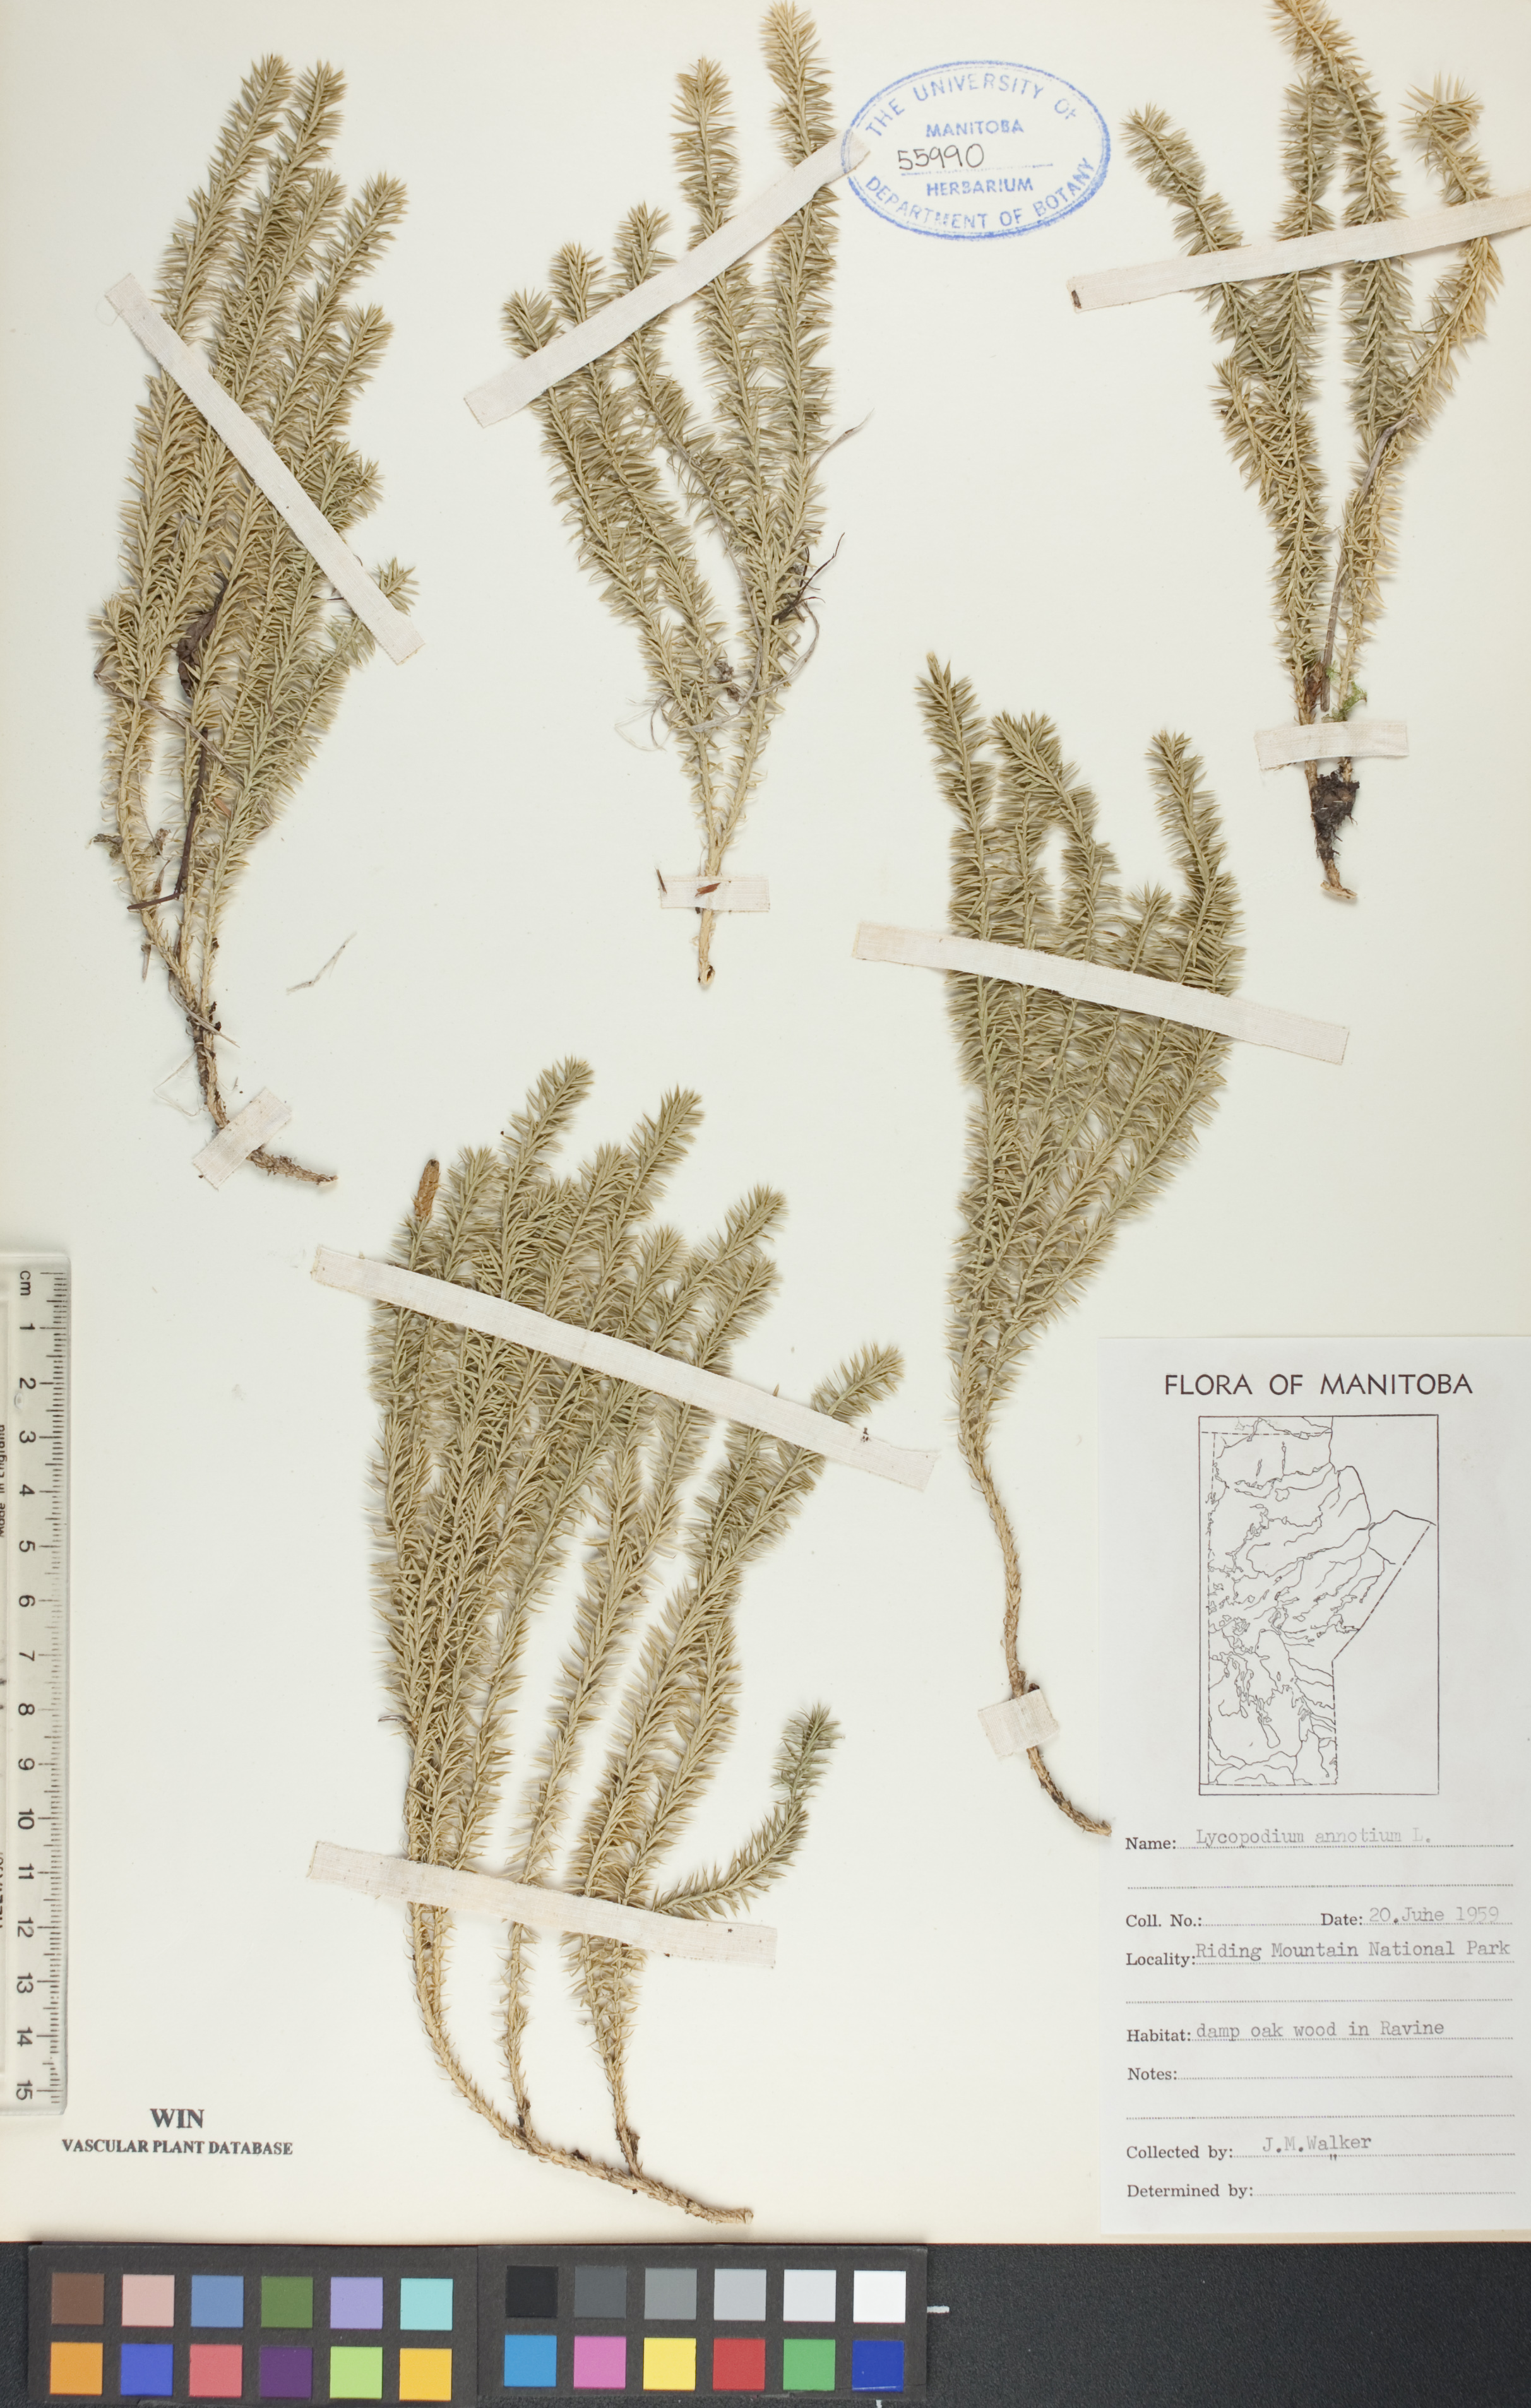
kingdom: Plantae
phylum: Tracheophyta
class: Lycopodiopsida
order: Lycopodiales
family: Lycopodiaceae
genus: Spinulum
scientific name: Spinulum annotinum
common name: Interrupted club-moss
